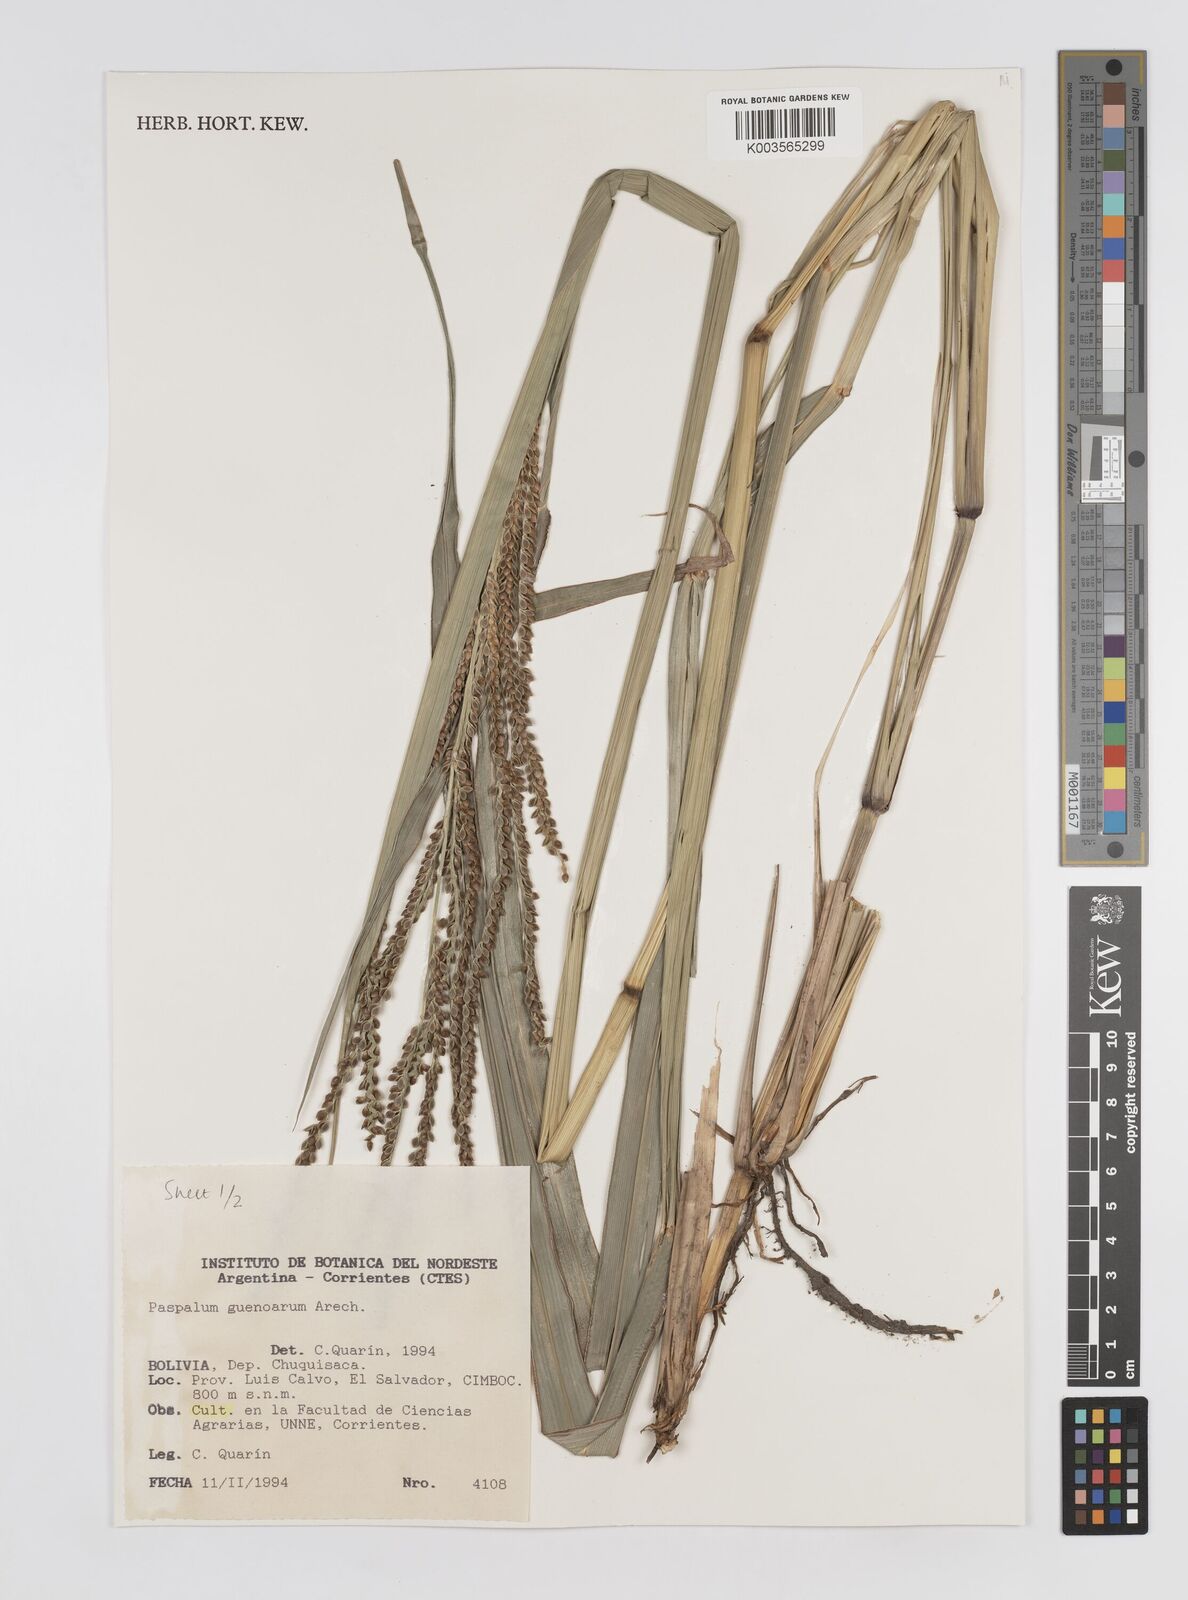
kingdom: Plantae
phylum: Tracheophyta
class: Liliopsida
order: Poales
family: Poaceae
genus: Paspalum
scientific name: Paspalum guenoarum
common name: Wintergreen paspalum
